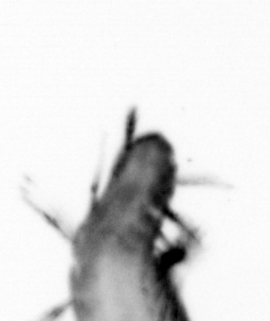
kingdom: Animalia
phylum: Annelida
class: Polychaeta
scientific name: Polychaeta
